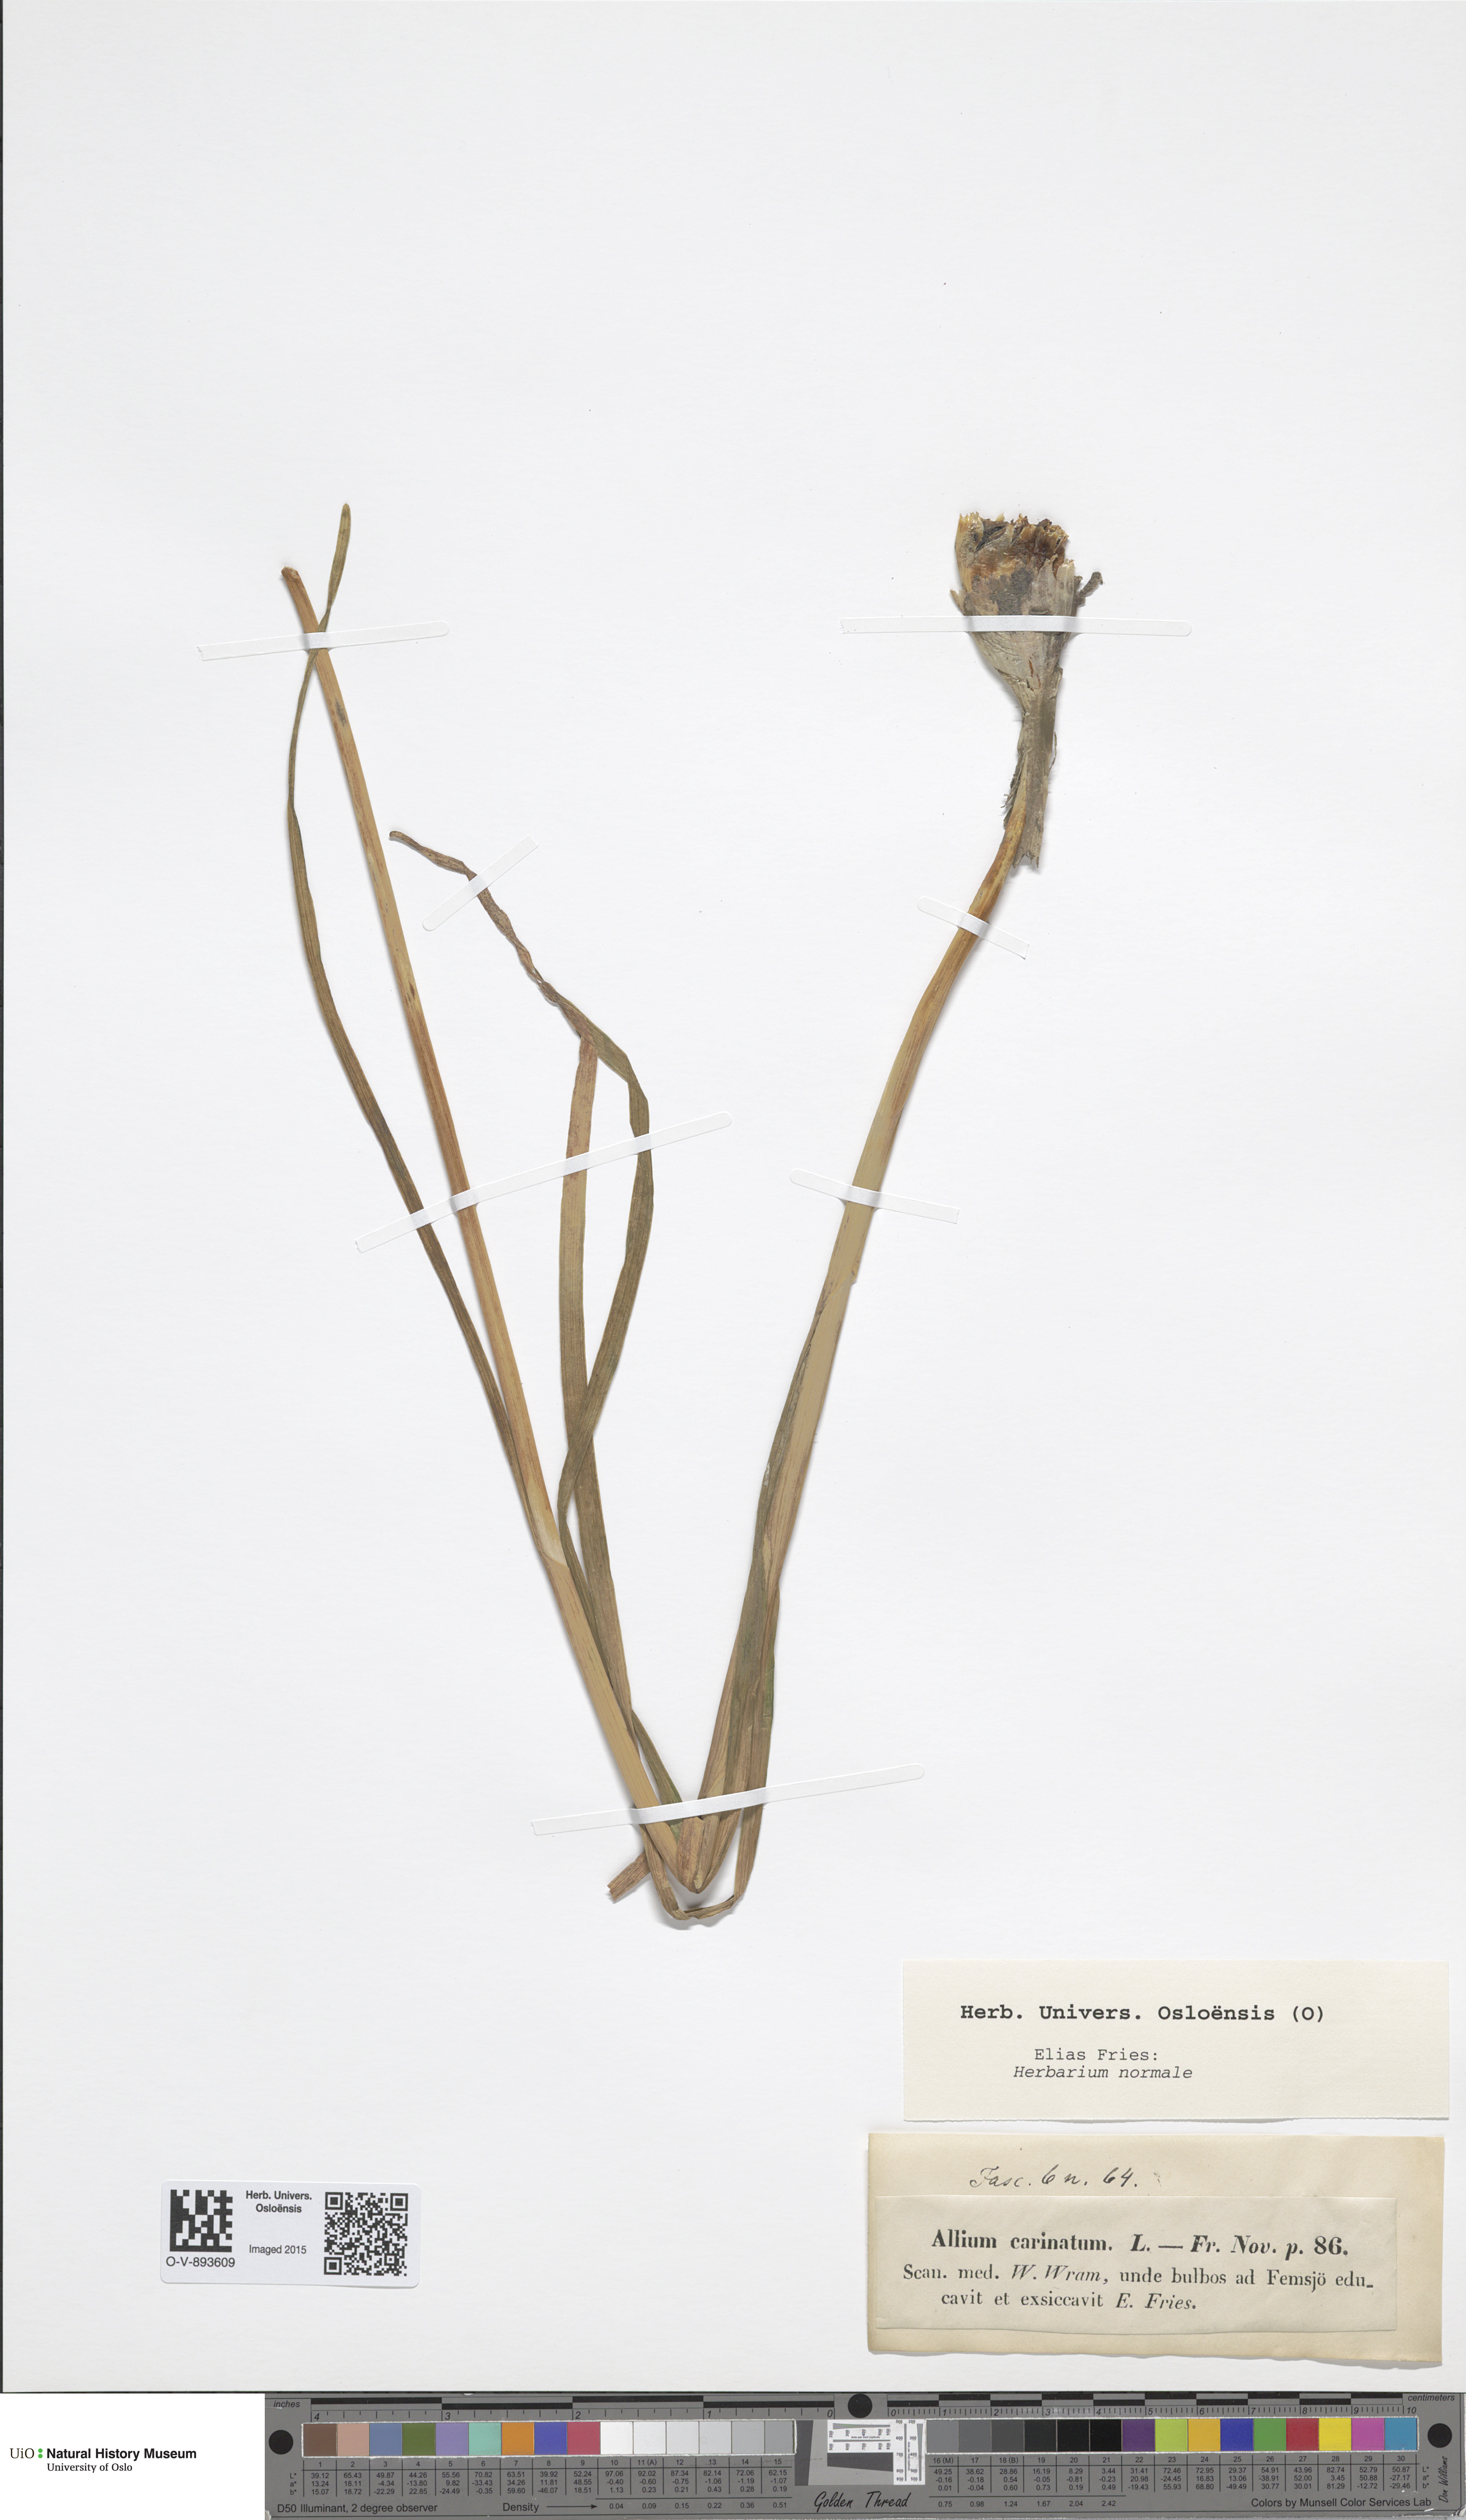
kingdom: Plantae
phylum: Tracheophyta
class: Liliopsida
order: Asparagales
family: Amaryllidaceae
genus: Allium
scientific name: Allium carinatum
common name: Keeled garlic
